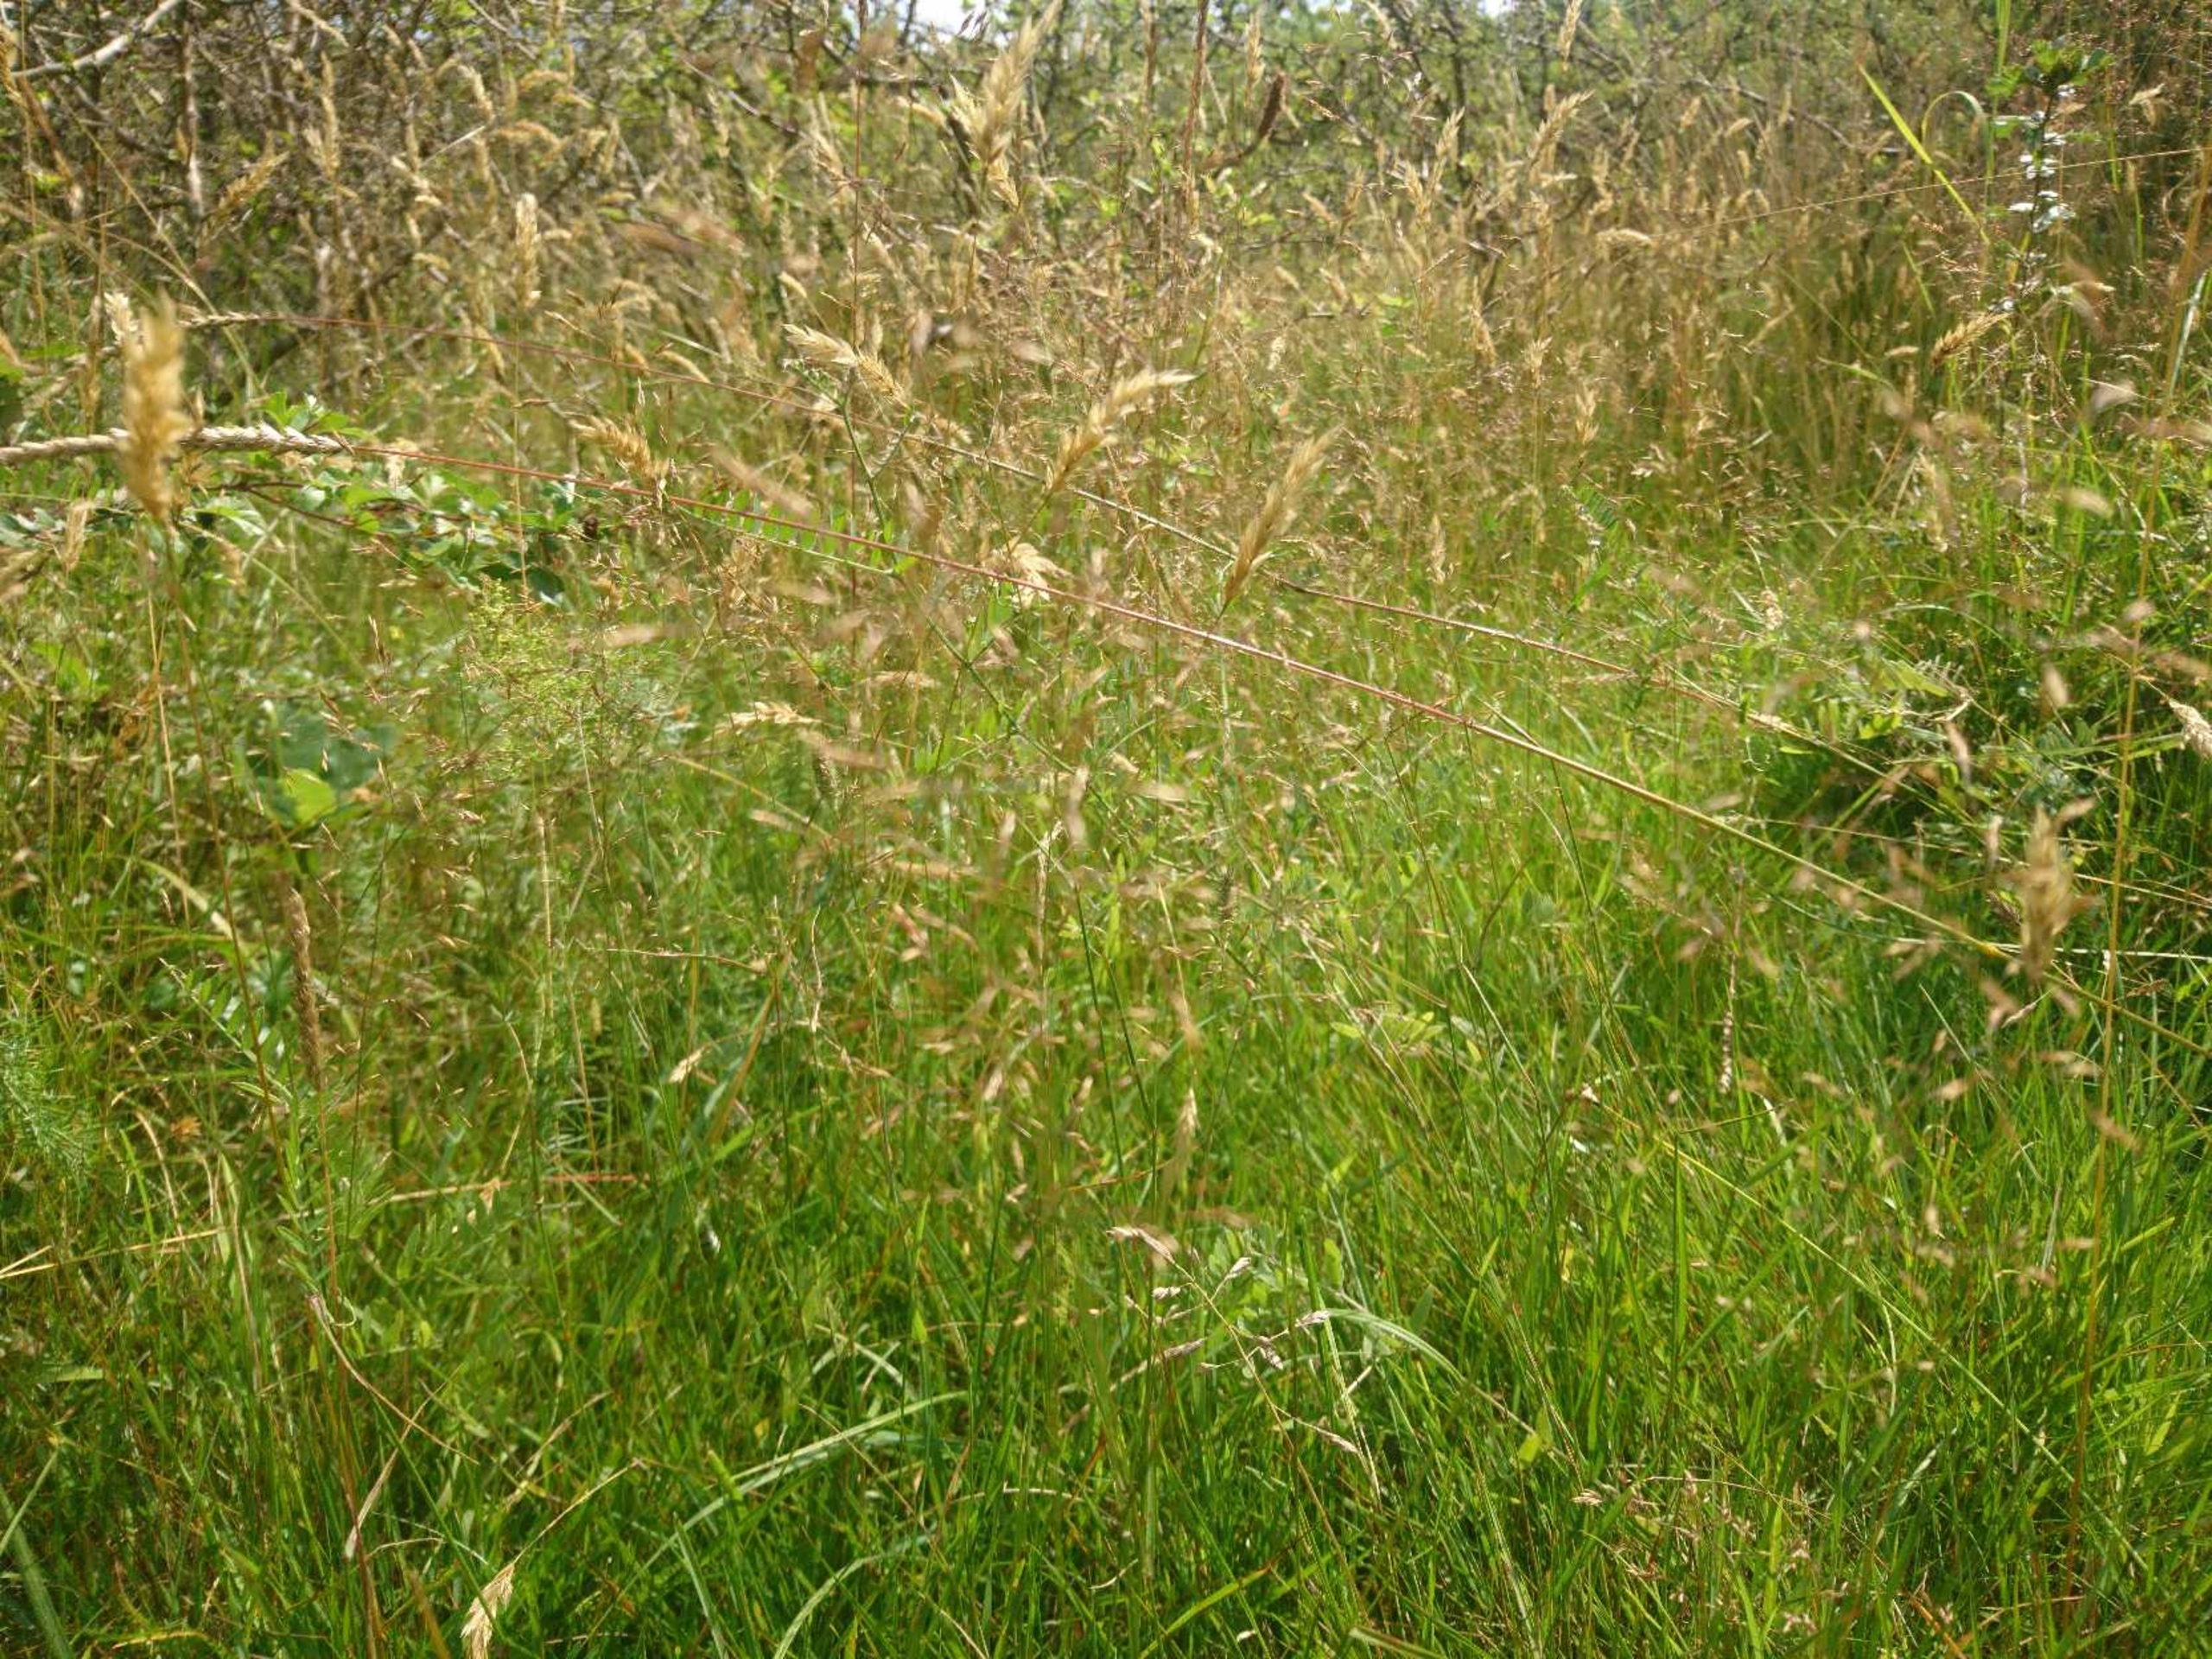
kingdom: Plantae
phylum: Tracheophyta
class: Liliopsida
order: Poales
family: Poaceae
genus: Agrostis
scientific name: Agrostis capillaris
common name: Almindelig hvene
